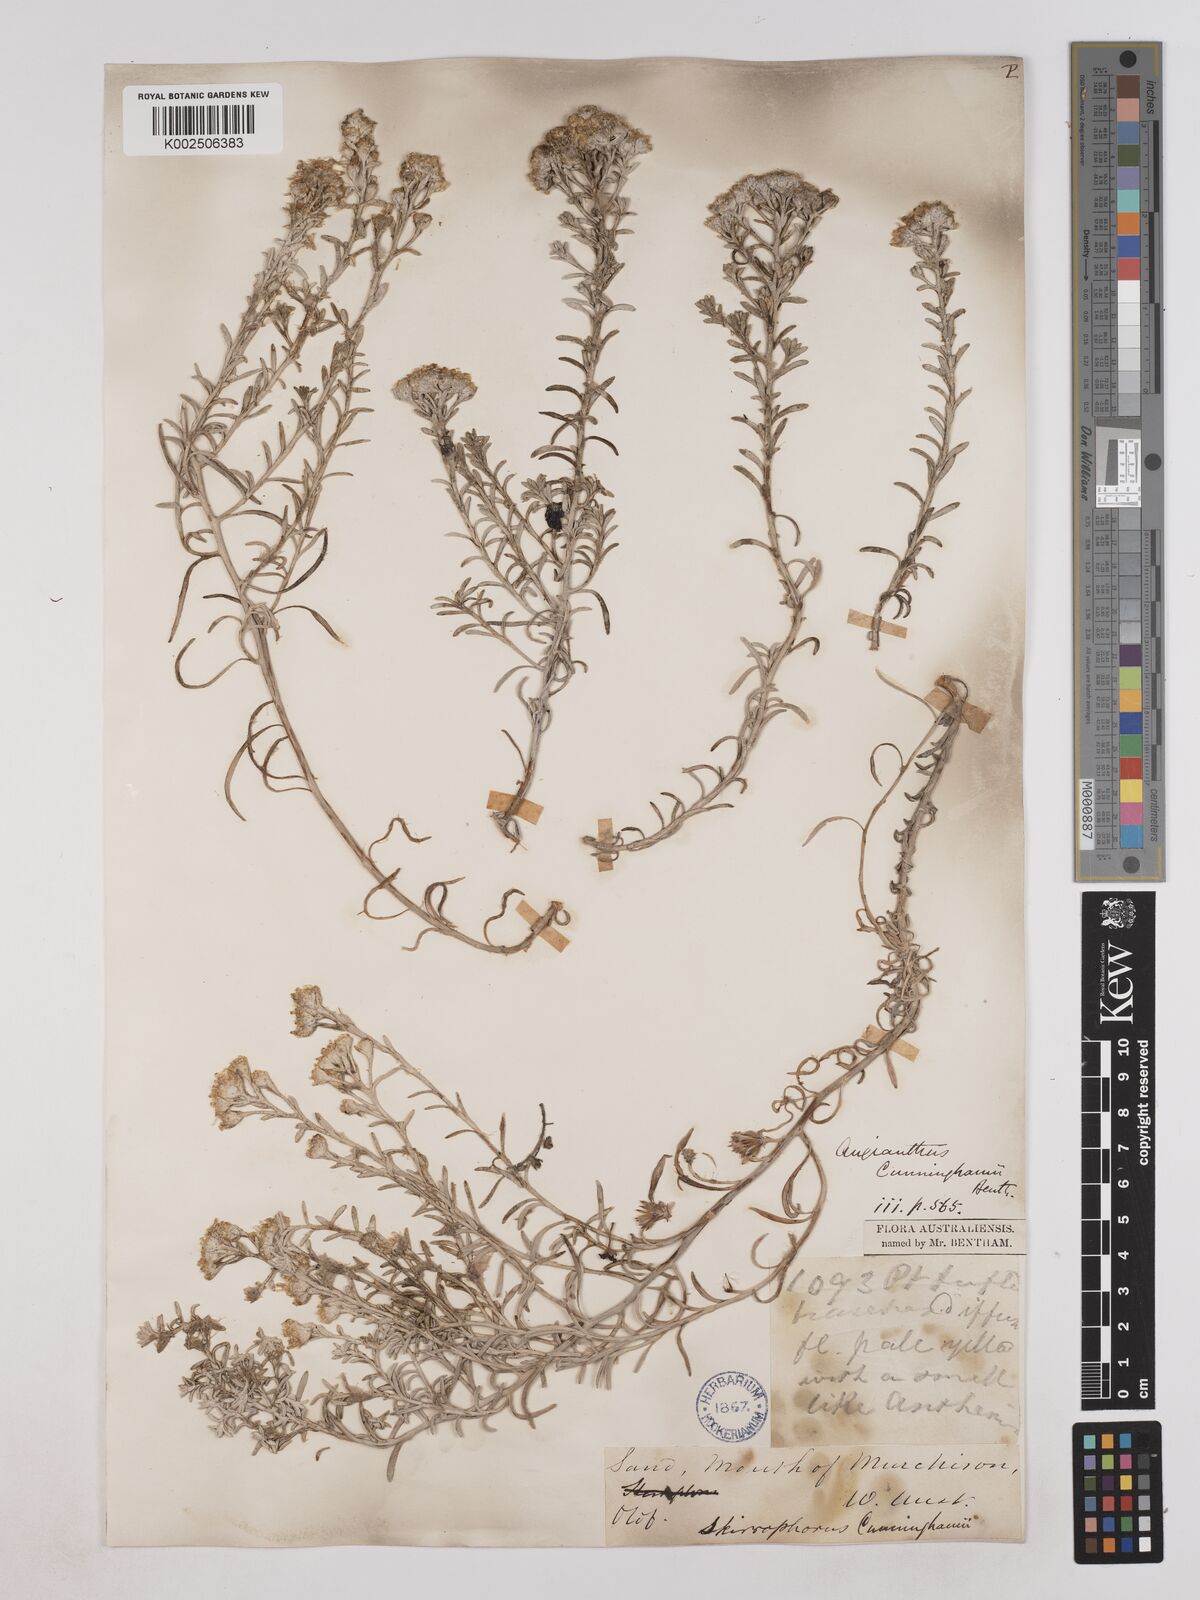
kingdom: Plantae
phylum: Tracheophyta
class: Magnoliopsida
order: Asterales
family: Asteraceae
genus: Angianthus
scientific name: Angianthus cunninghamii
